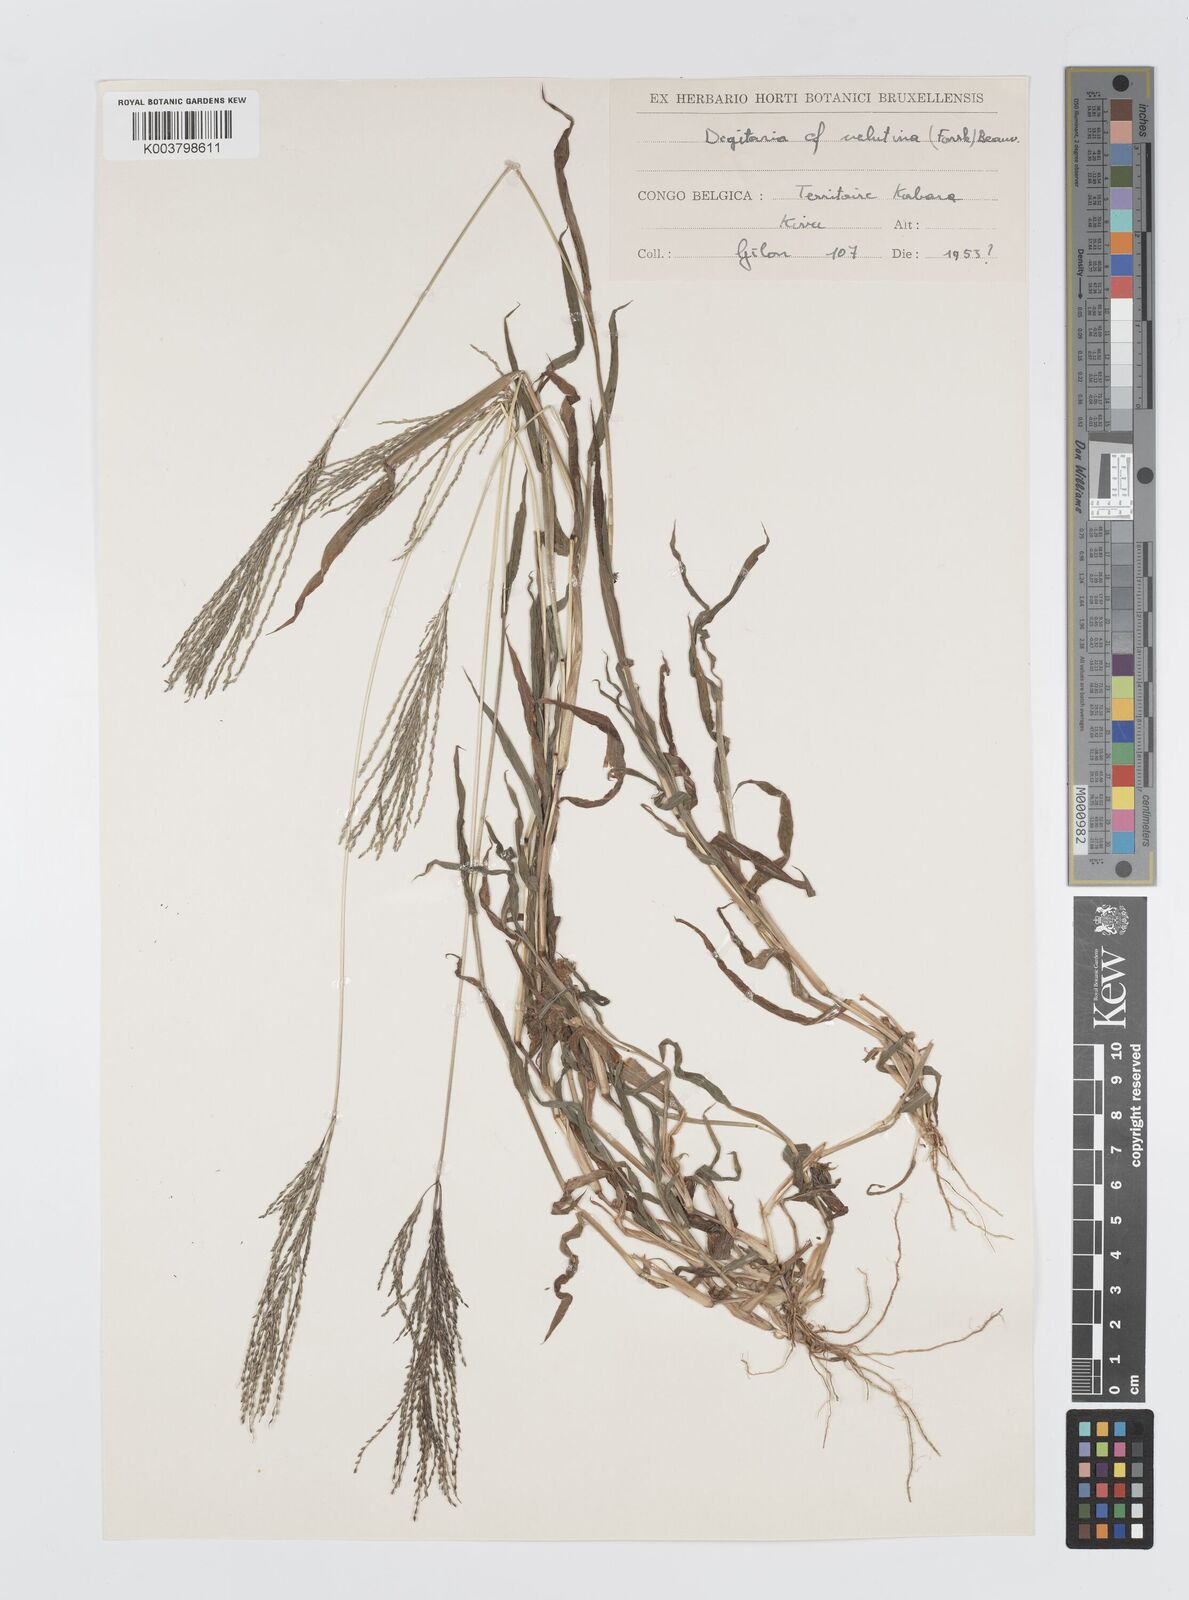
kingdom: Plantae
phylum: Tracheophyta
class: Liliopsida
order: Poales
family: Poaceae
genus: Digitaria
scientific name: Digitaria velutina
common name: Long-plume finger grass
